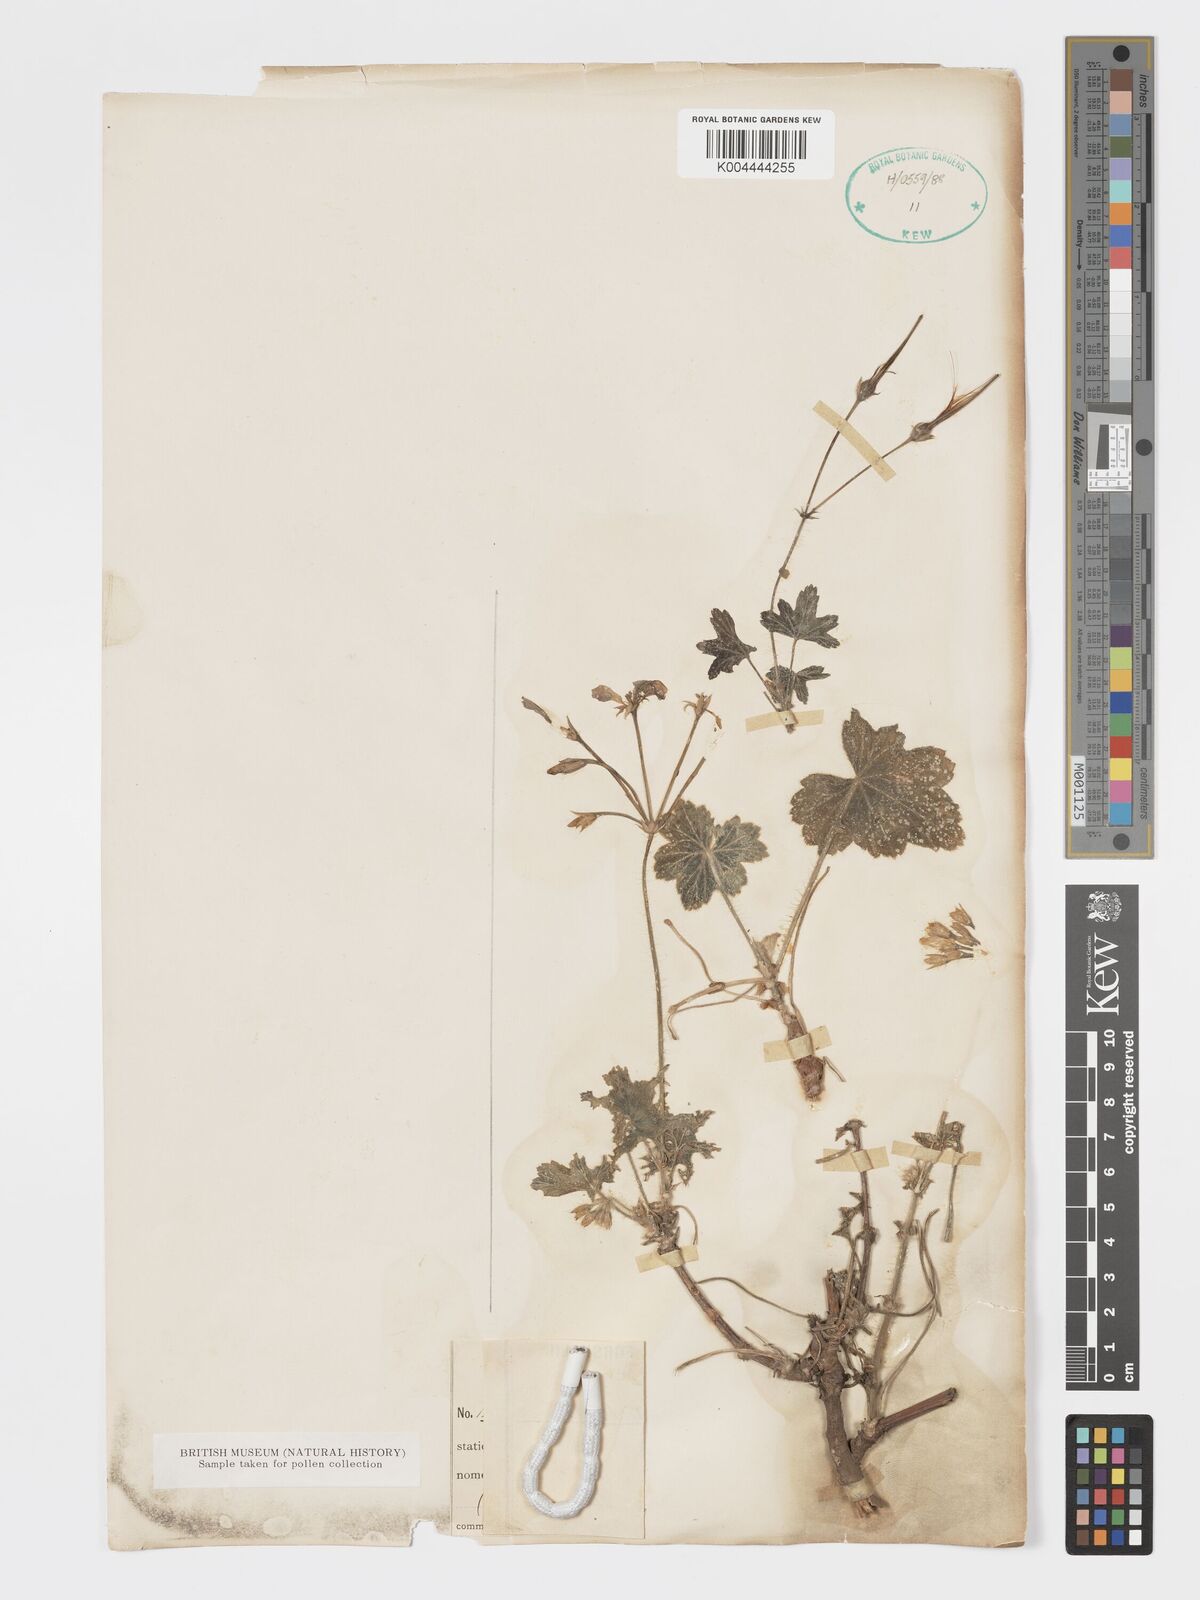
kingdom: Plantae
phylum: Tracheophyta
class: Magnoliopsida
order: Geraniales
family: Geraniaceae
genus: Pelargonium
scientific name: Pelargonium multibracteatum
